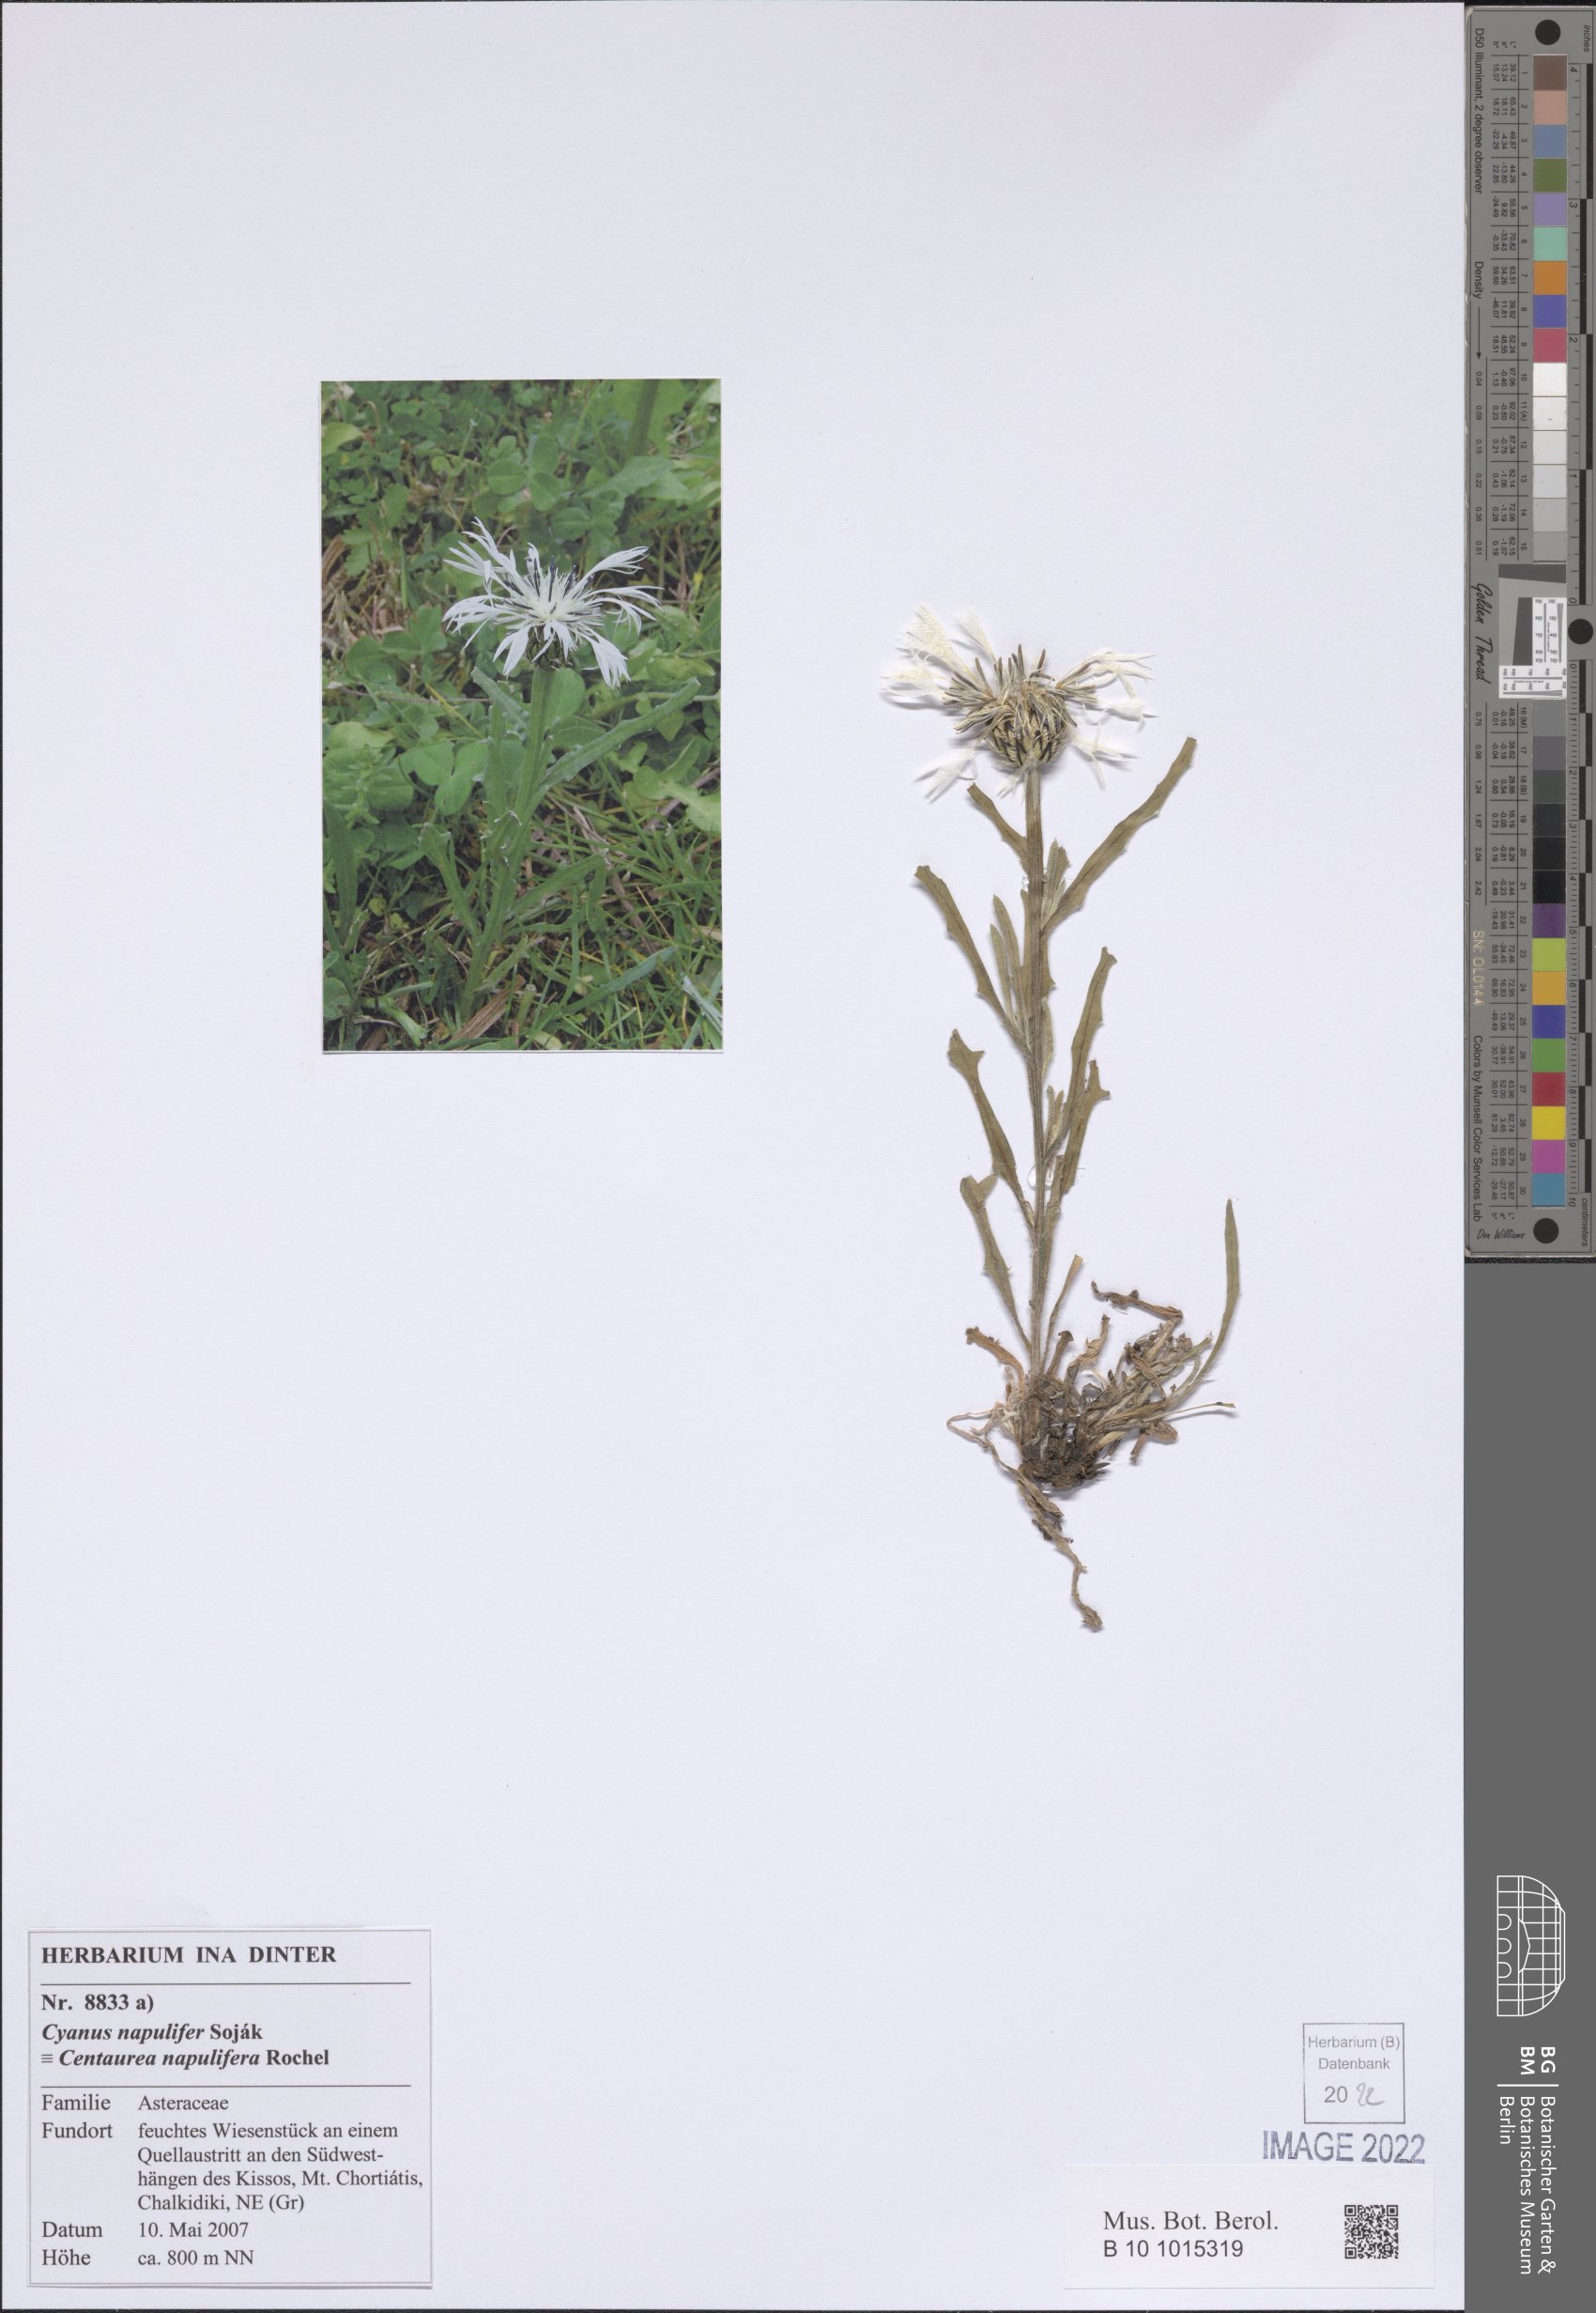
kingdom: Plantae
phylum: Tracheophyta
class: Magnoliopsida
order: Asterales
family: Asteraceae
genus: Centaurea
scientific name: Centaurea napulifera
